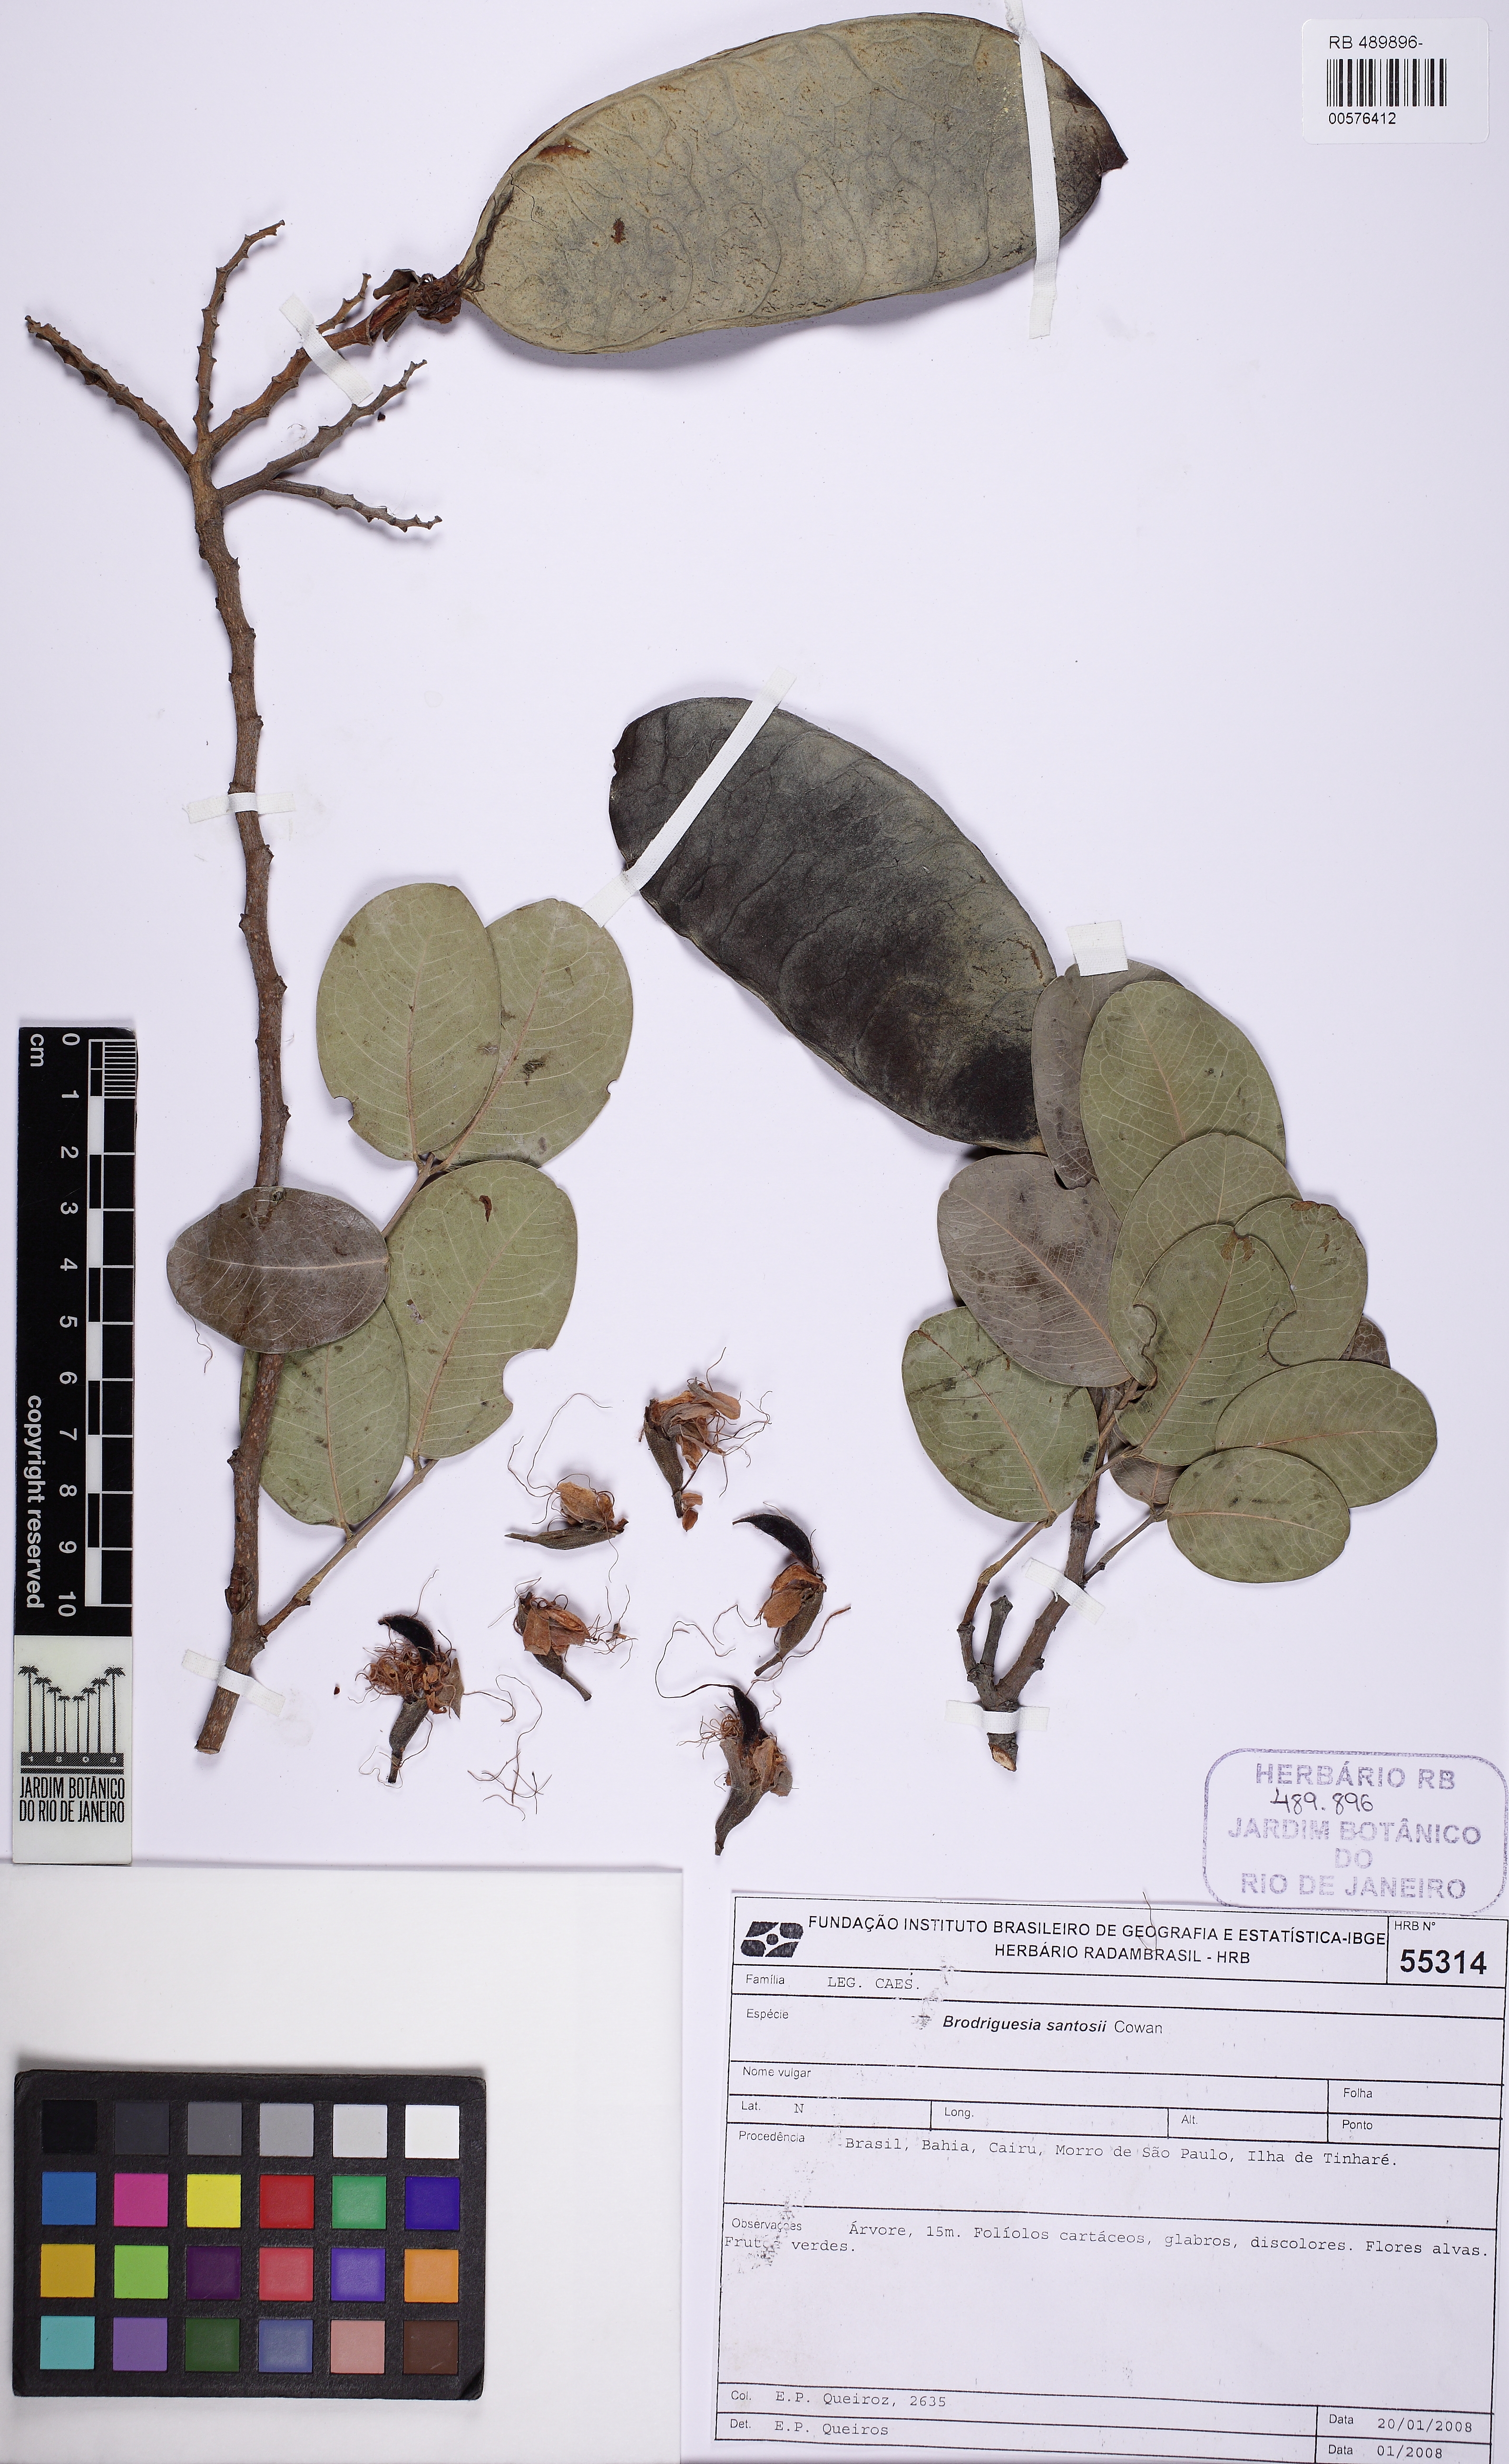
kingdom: Plantae
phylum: Tracheophyta
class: Magnoliopsida
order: Fabales
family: Fabaceae
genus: Brodriguesia
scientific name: Brodriguesia santosii
